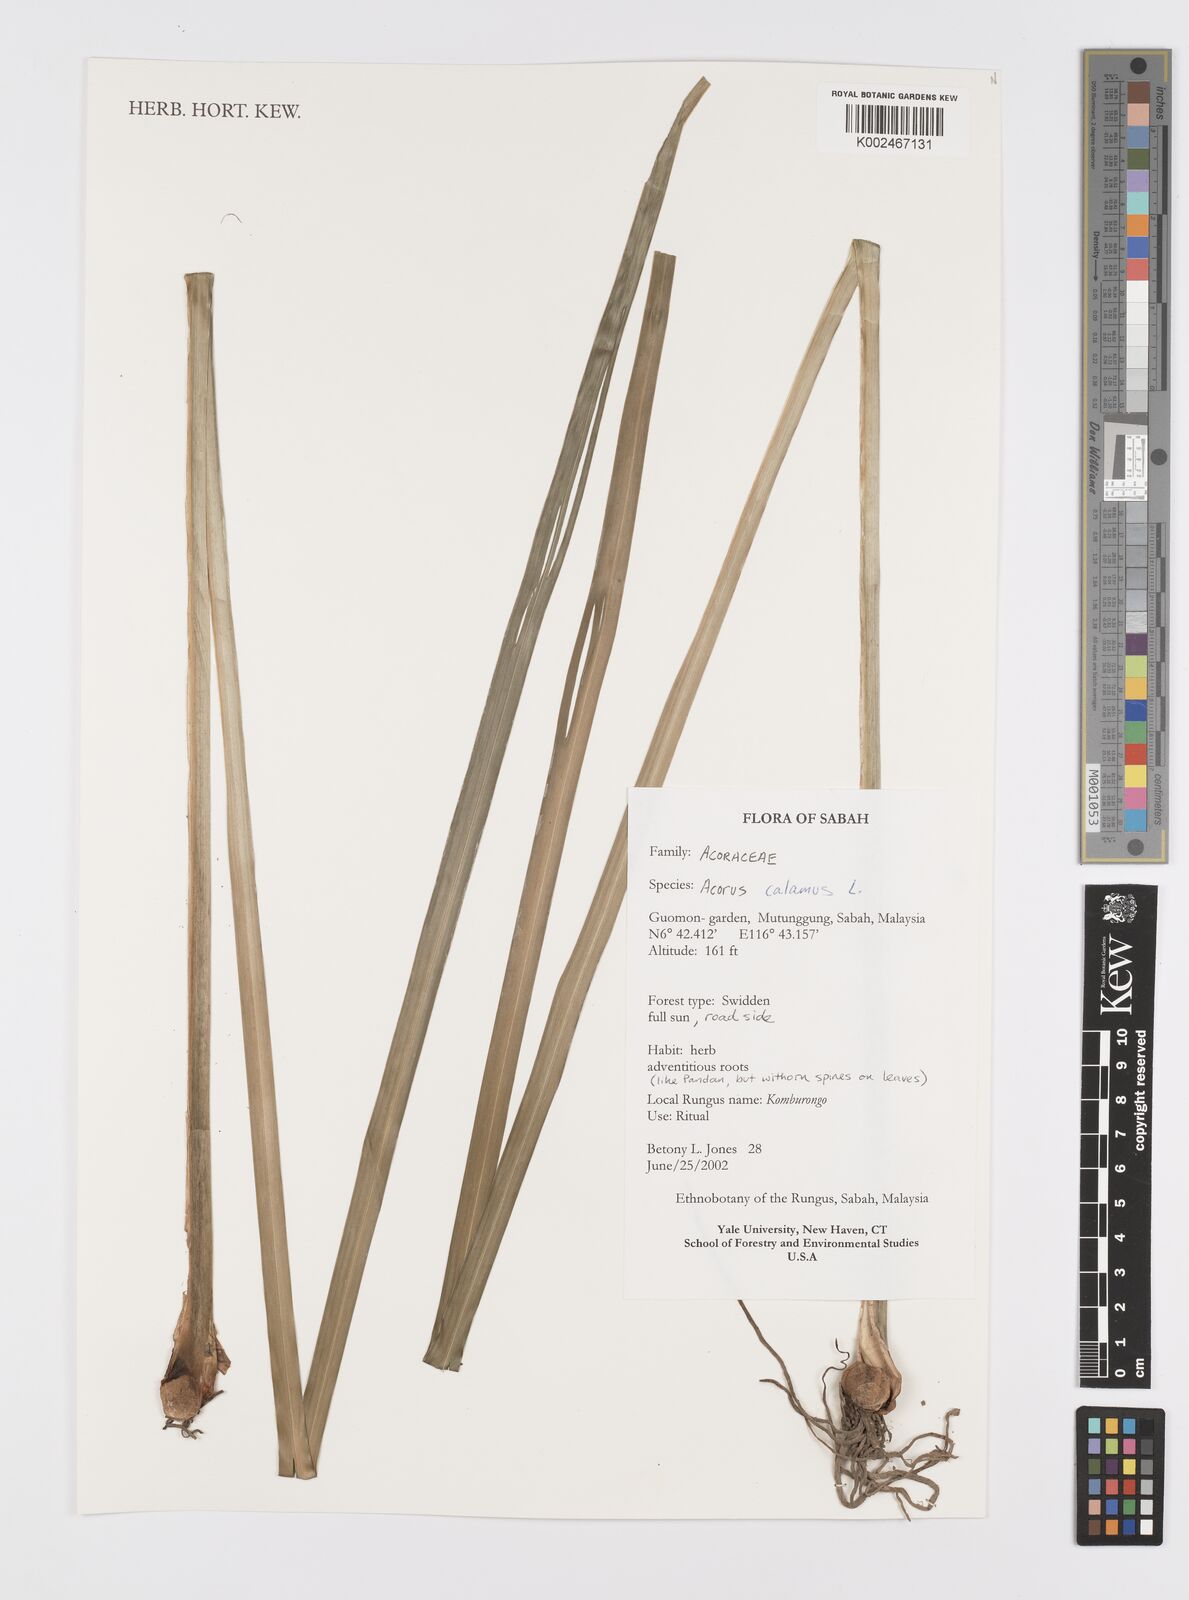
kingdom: Plantae
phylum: Tracheophyta
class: Liliopsida
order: Acorales
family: Acoraceae
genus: Acorus
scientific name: Acorus calamus
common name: Sweet-flag
